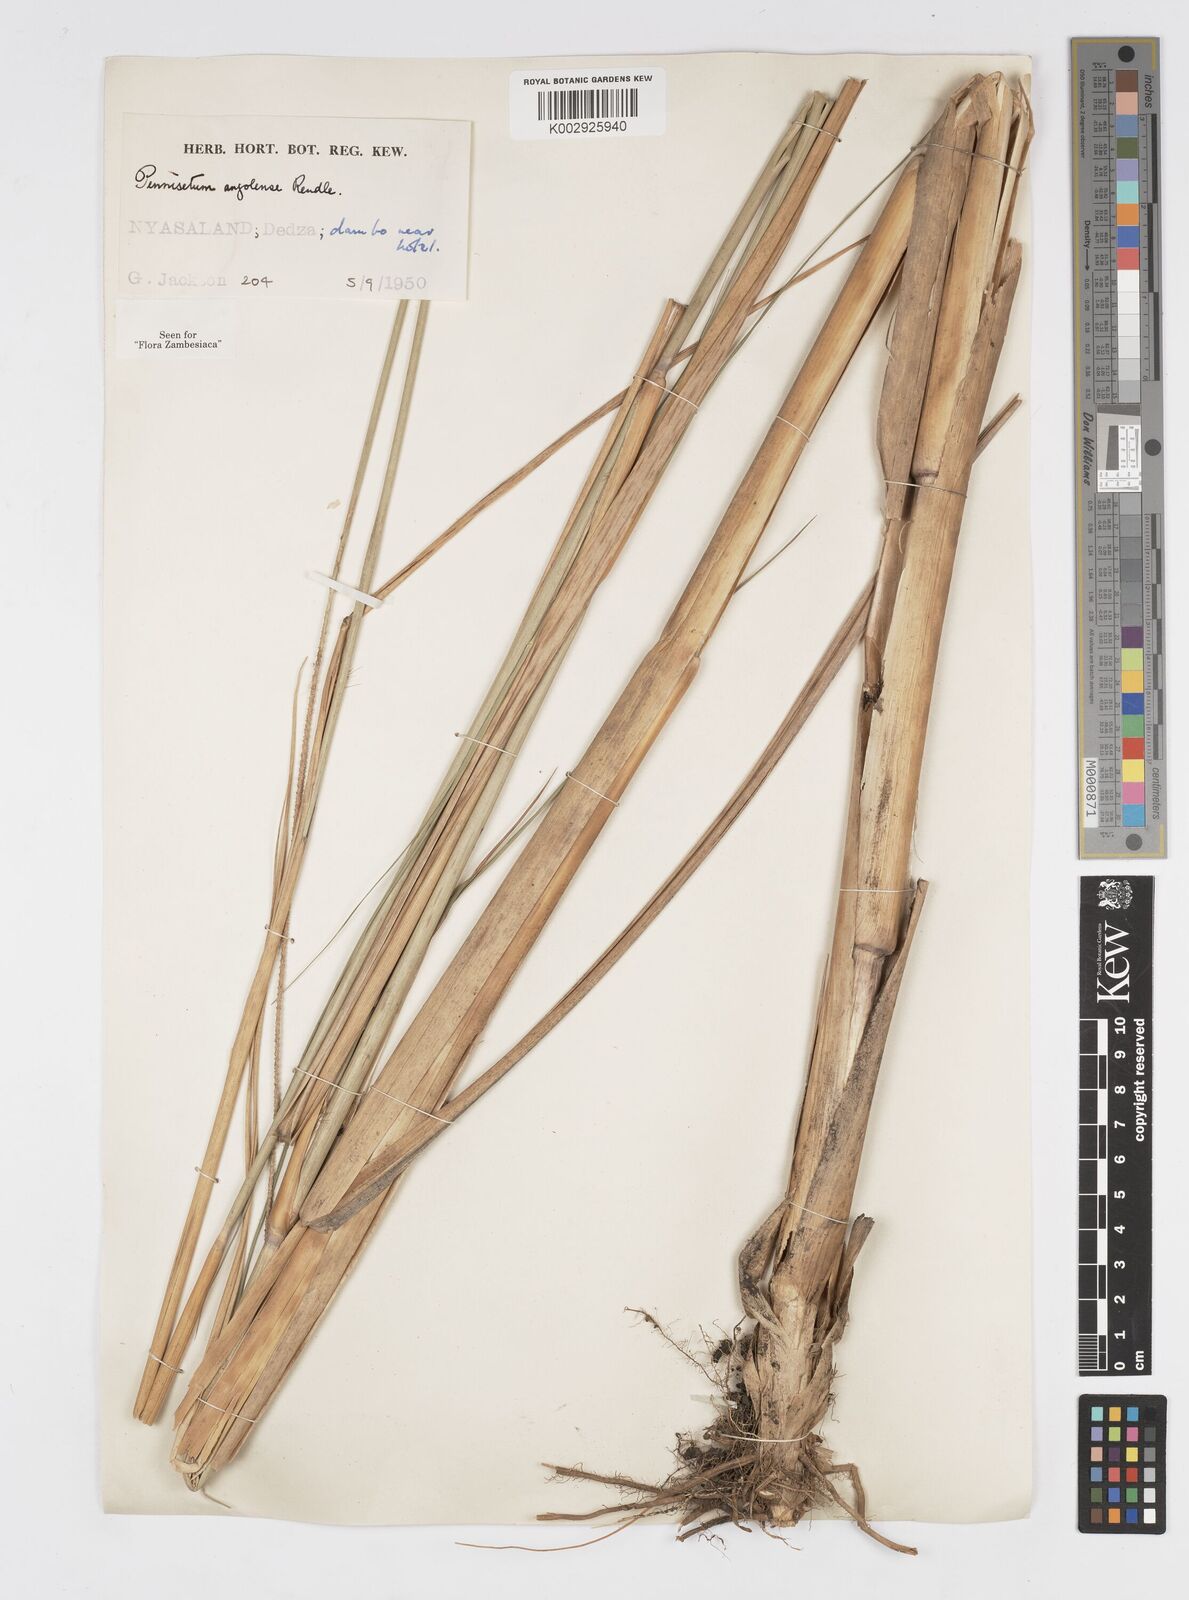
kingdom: Plantae
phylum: Tracheophyta
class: Liliopsida
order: Poales
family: Poaceae
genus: Cenchrus
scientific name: Cenchrus caudatus
